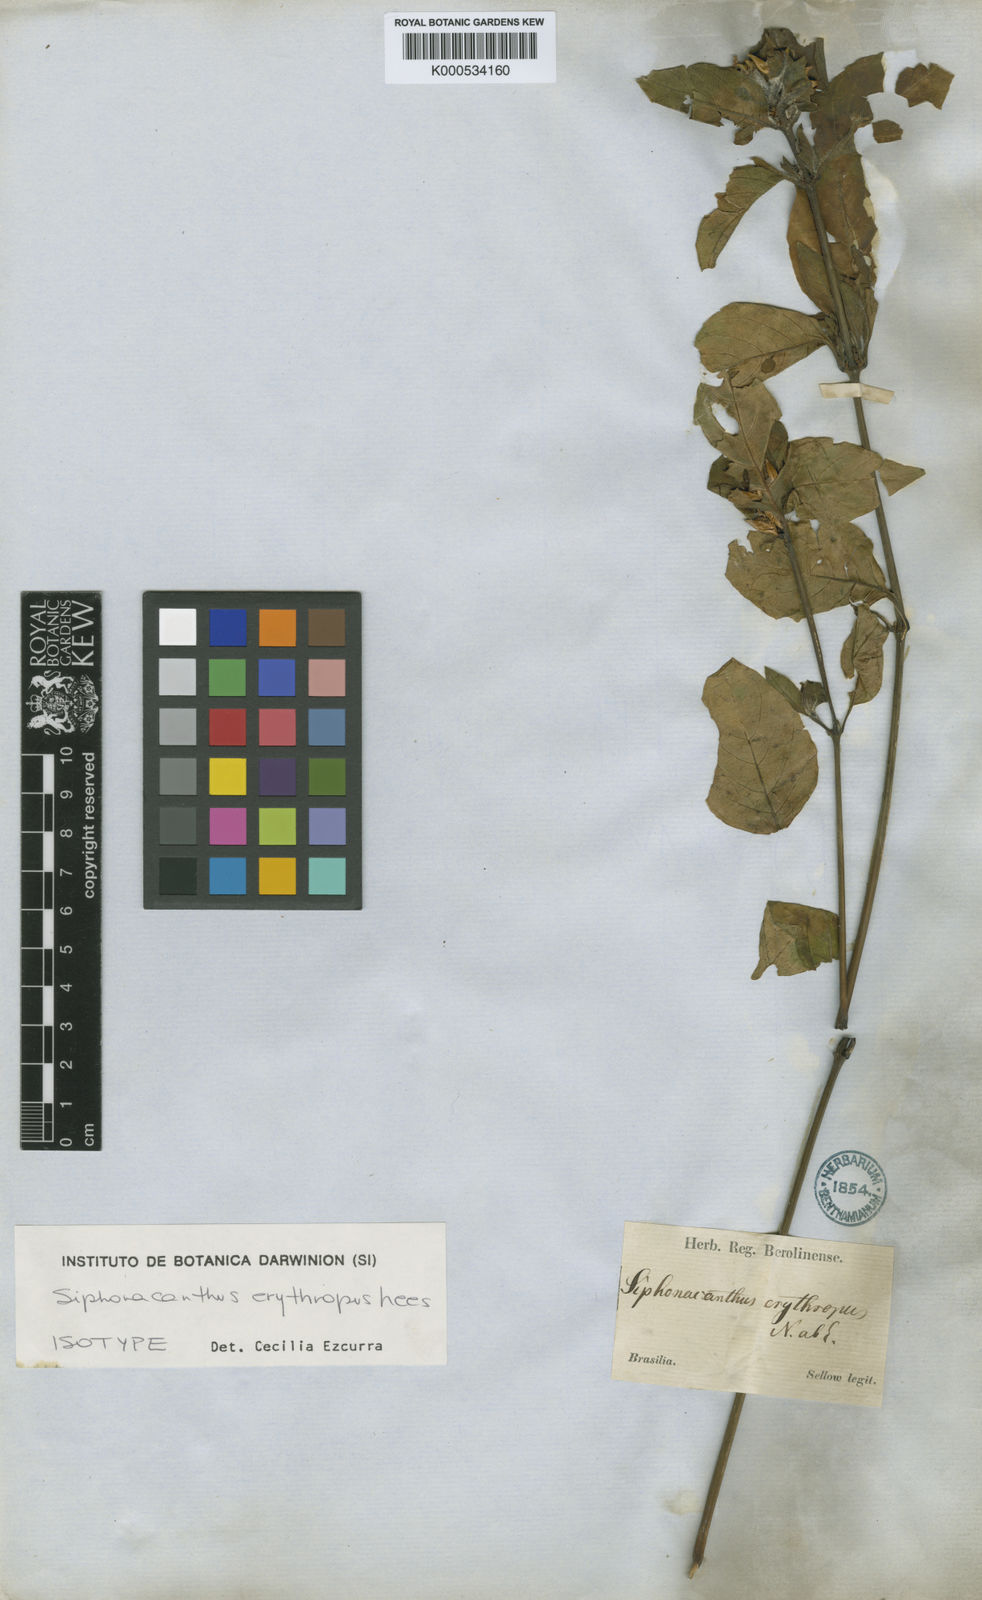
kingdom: Plantae
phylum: Tracheophyta
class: Magnoliopsida
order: Lamiales
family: Acanthaceae
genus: Ruellia
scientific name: Ruellia erythropus
